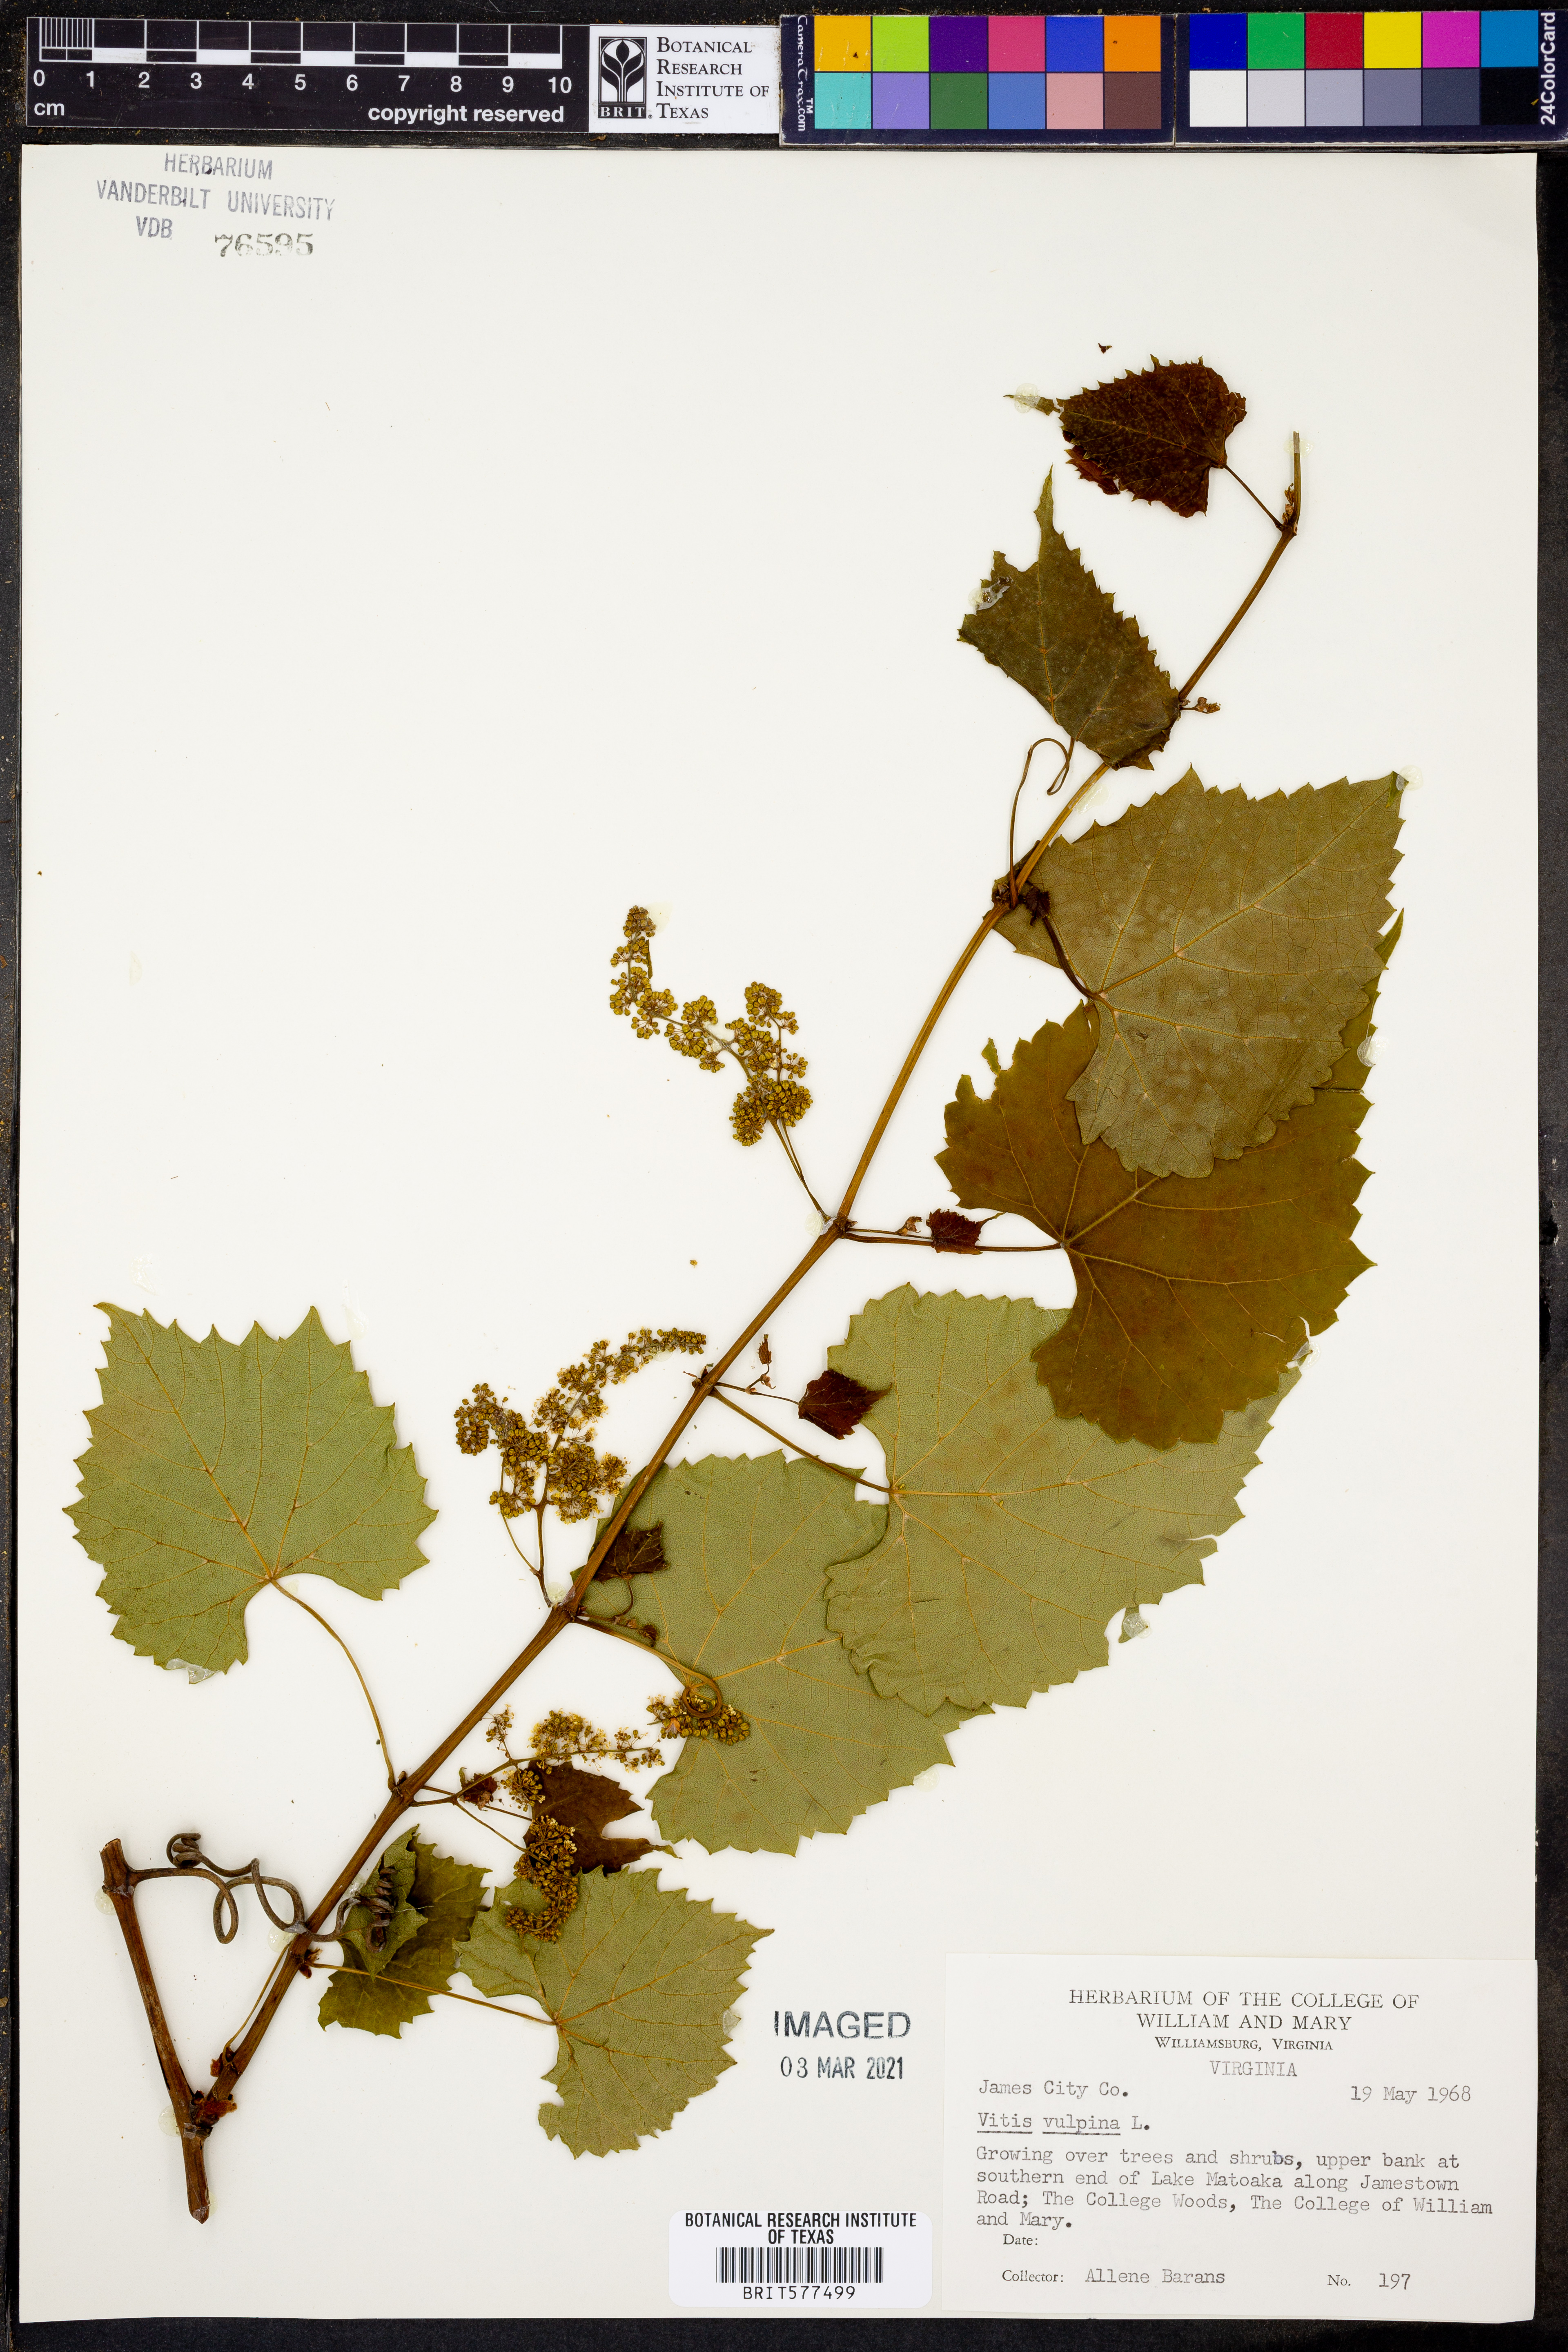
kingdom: Plantae
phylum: Tracheophyta
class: Magnoliopsida
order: Vitales
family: Vitaceae
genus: Vitis
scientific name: Vitis vulpina
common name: Frost grape
